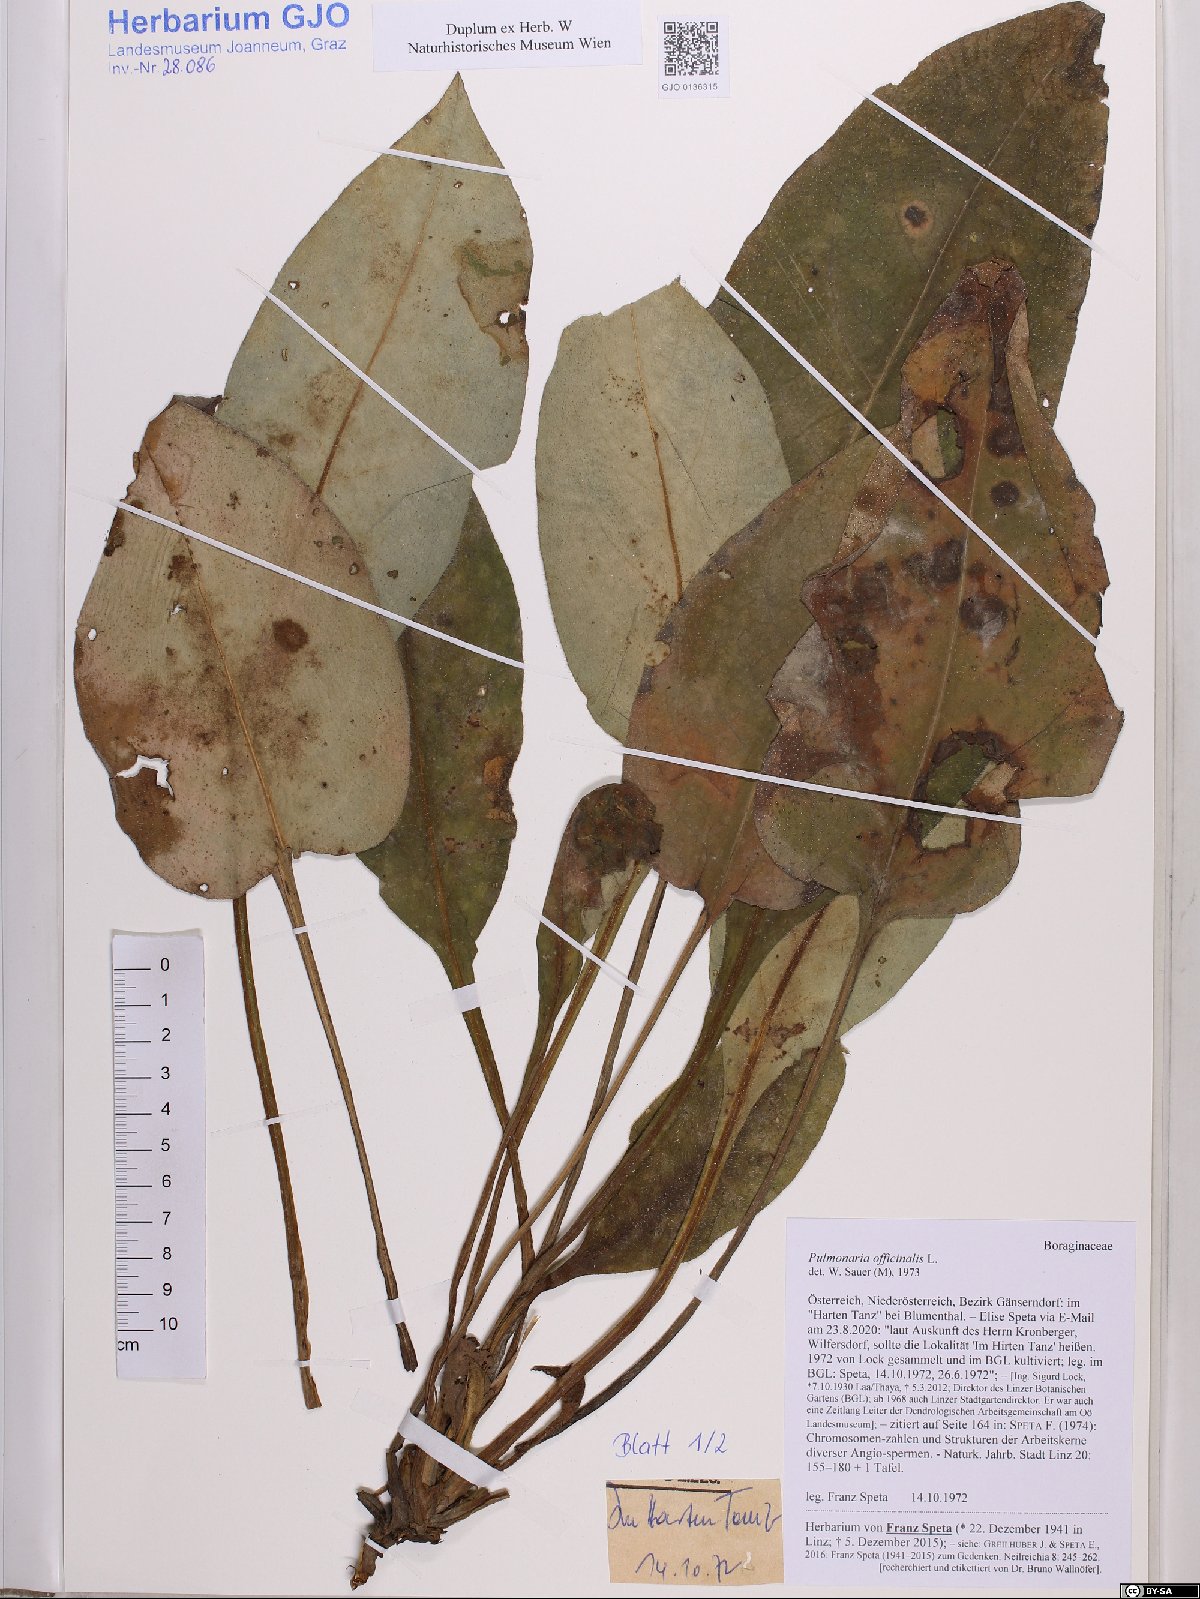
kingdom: Plantae
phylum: Tracheophyta
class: Magnoliopsida
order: Boraginales
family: Boraginaceae
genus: Pulmonaria
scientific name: Pulmonaria officinalis
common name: Lungwort
